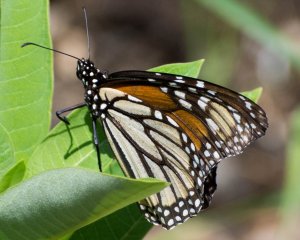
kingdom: Animalia
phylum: Arthropoda
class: Insecta
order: Lepidoptera
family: Nymphalidae
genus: Danaus
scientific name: Danaus plexippus
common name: Monarch
